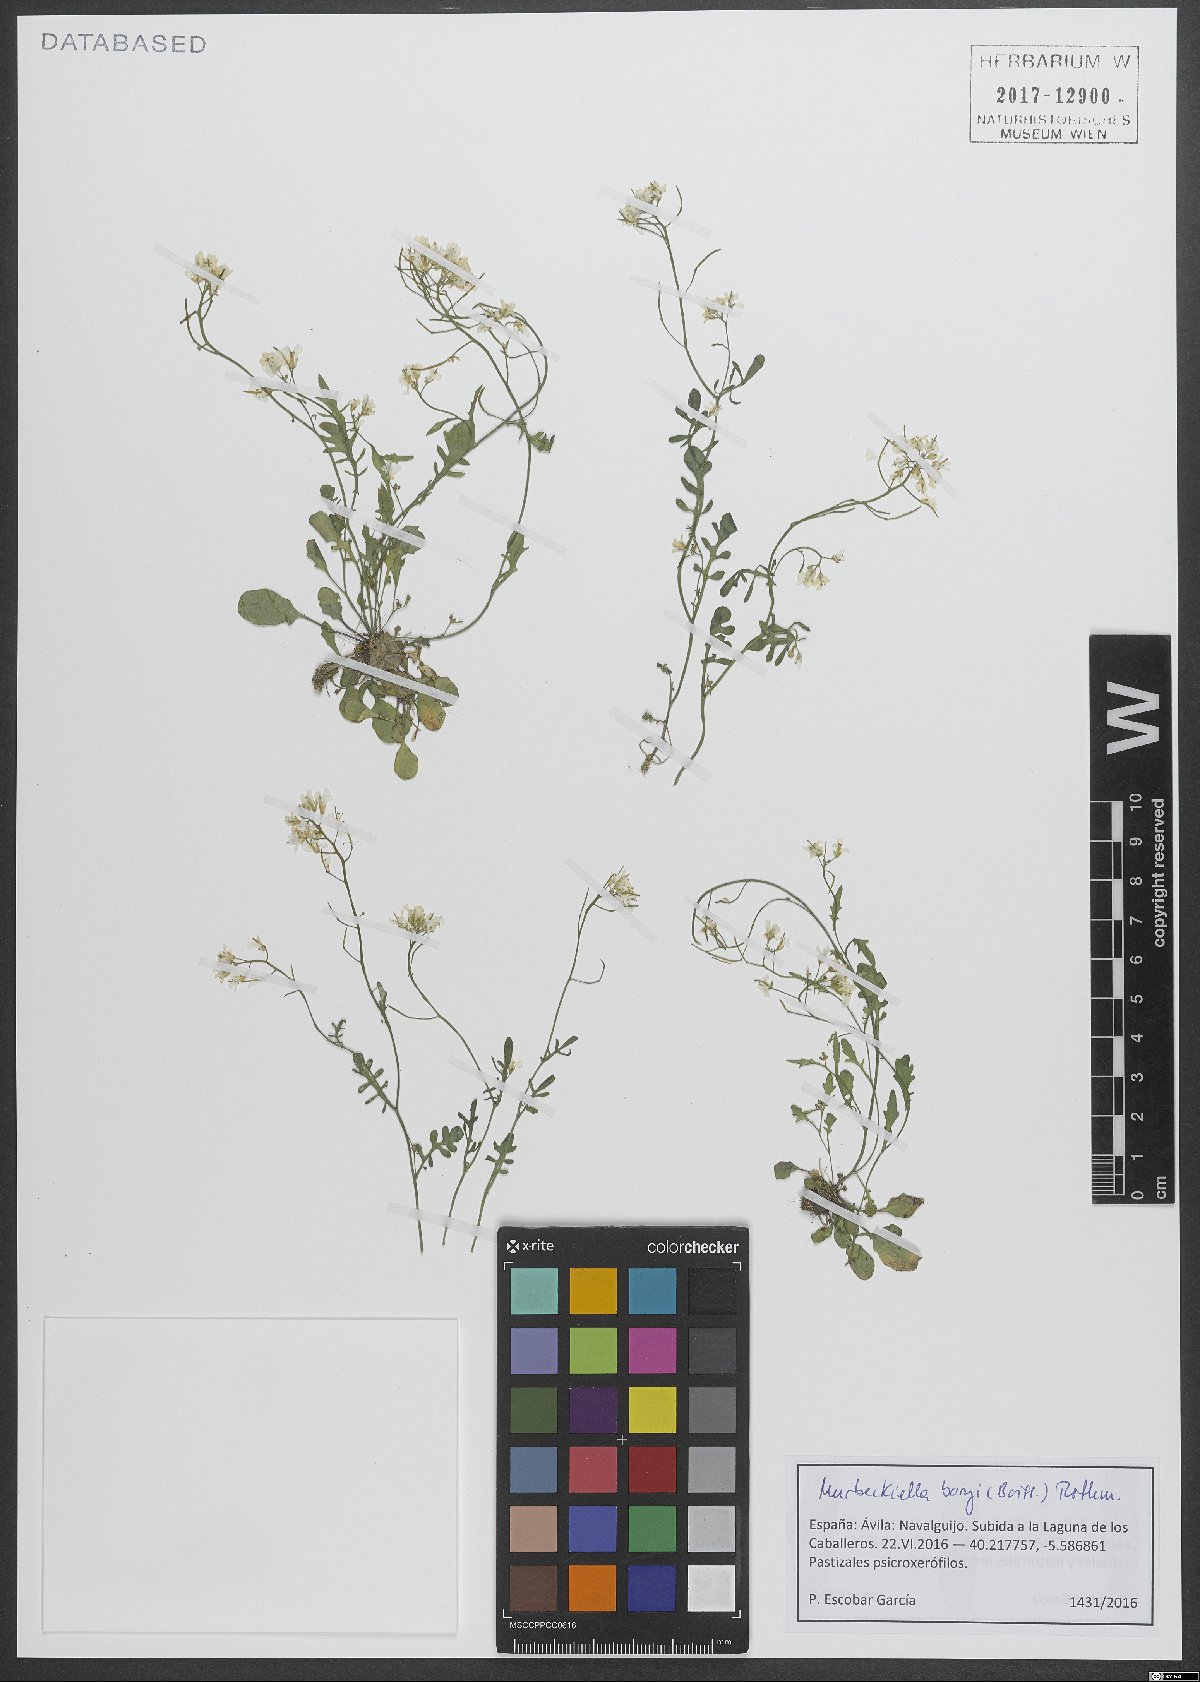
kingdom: Plantae
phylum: Tracheophyta
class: Magnoliopsida
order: Brassicales
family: Brassicaceae
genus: Murbeckiella
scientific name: Murbeckiella boryi
